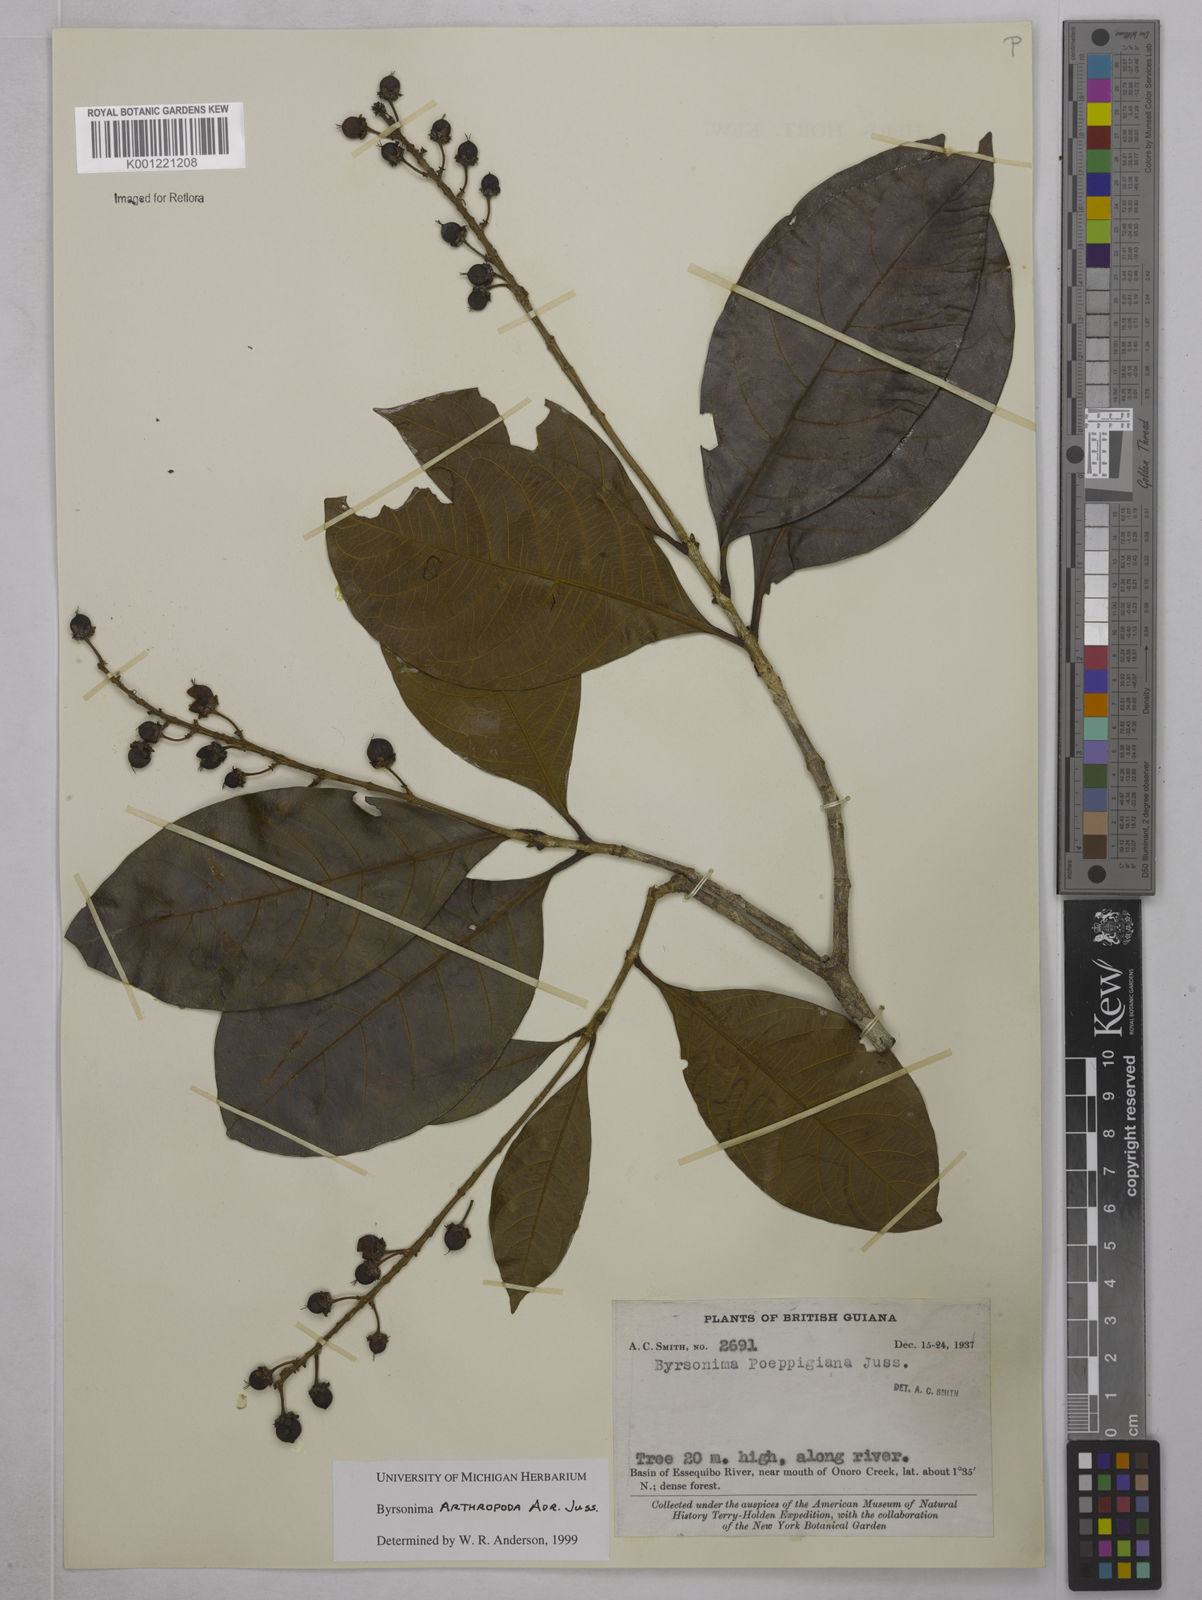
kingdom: Plantae
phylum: Tracheophyta
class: Magnoliopsida
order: Malpighiales
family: Malpighiaceae
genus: Byrsonima
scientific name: Byrsonima arthropoda
